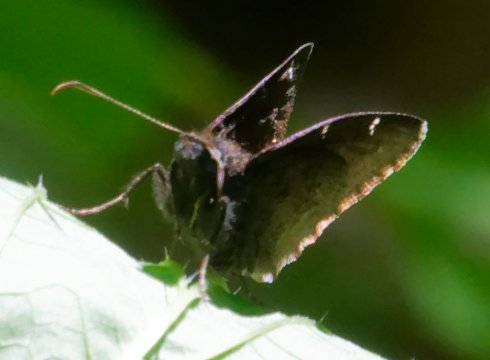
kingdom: Animalia
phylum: Arthropoda
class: Insecta
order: Lepidoptera
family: Hesperiidae
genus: Autochton
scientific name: Autochton
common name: Northern Cloudywing
